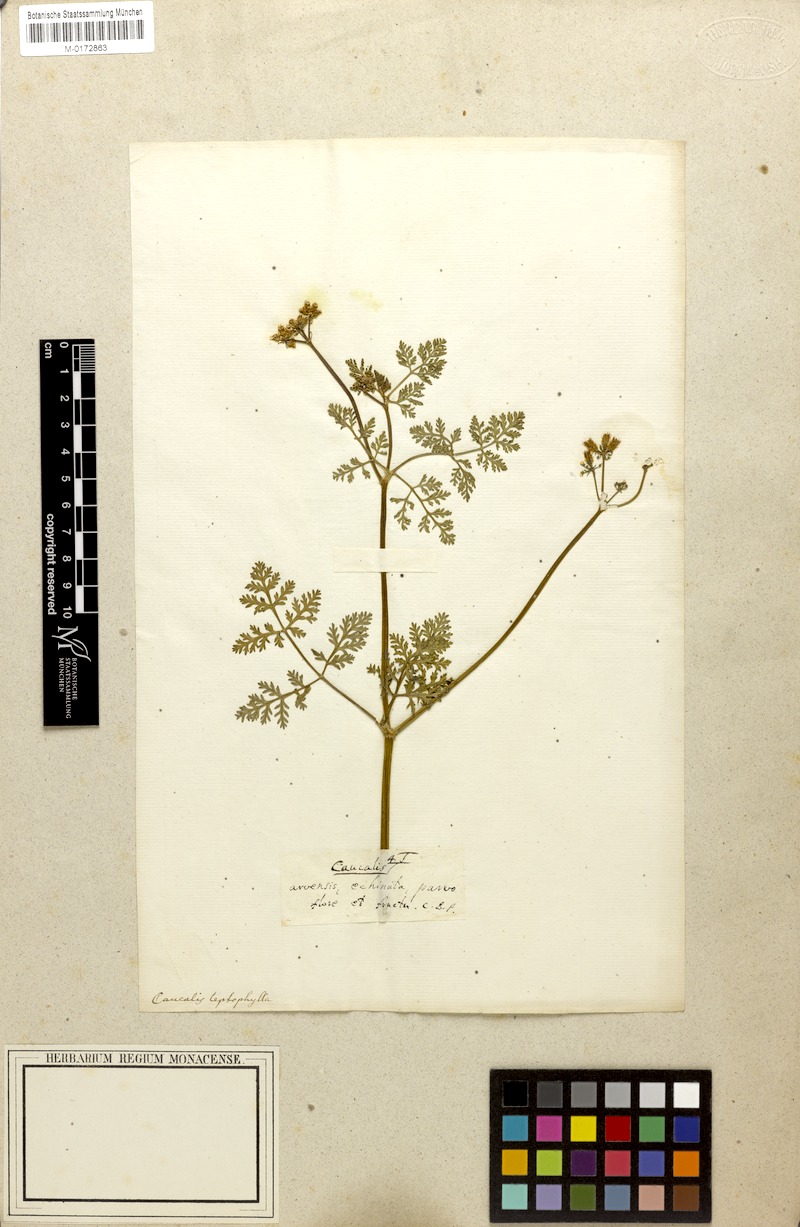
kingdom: Plantae
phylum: Tracheophyta
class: Magnoliopsida
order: Apiales
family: Apiaceae
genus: Caucalis
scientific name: Caucalis platycarpos
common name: Small bur-parsley
